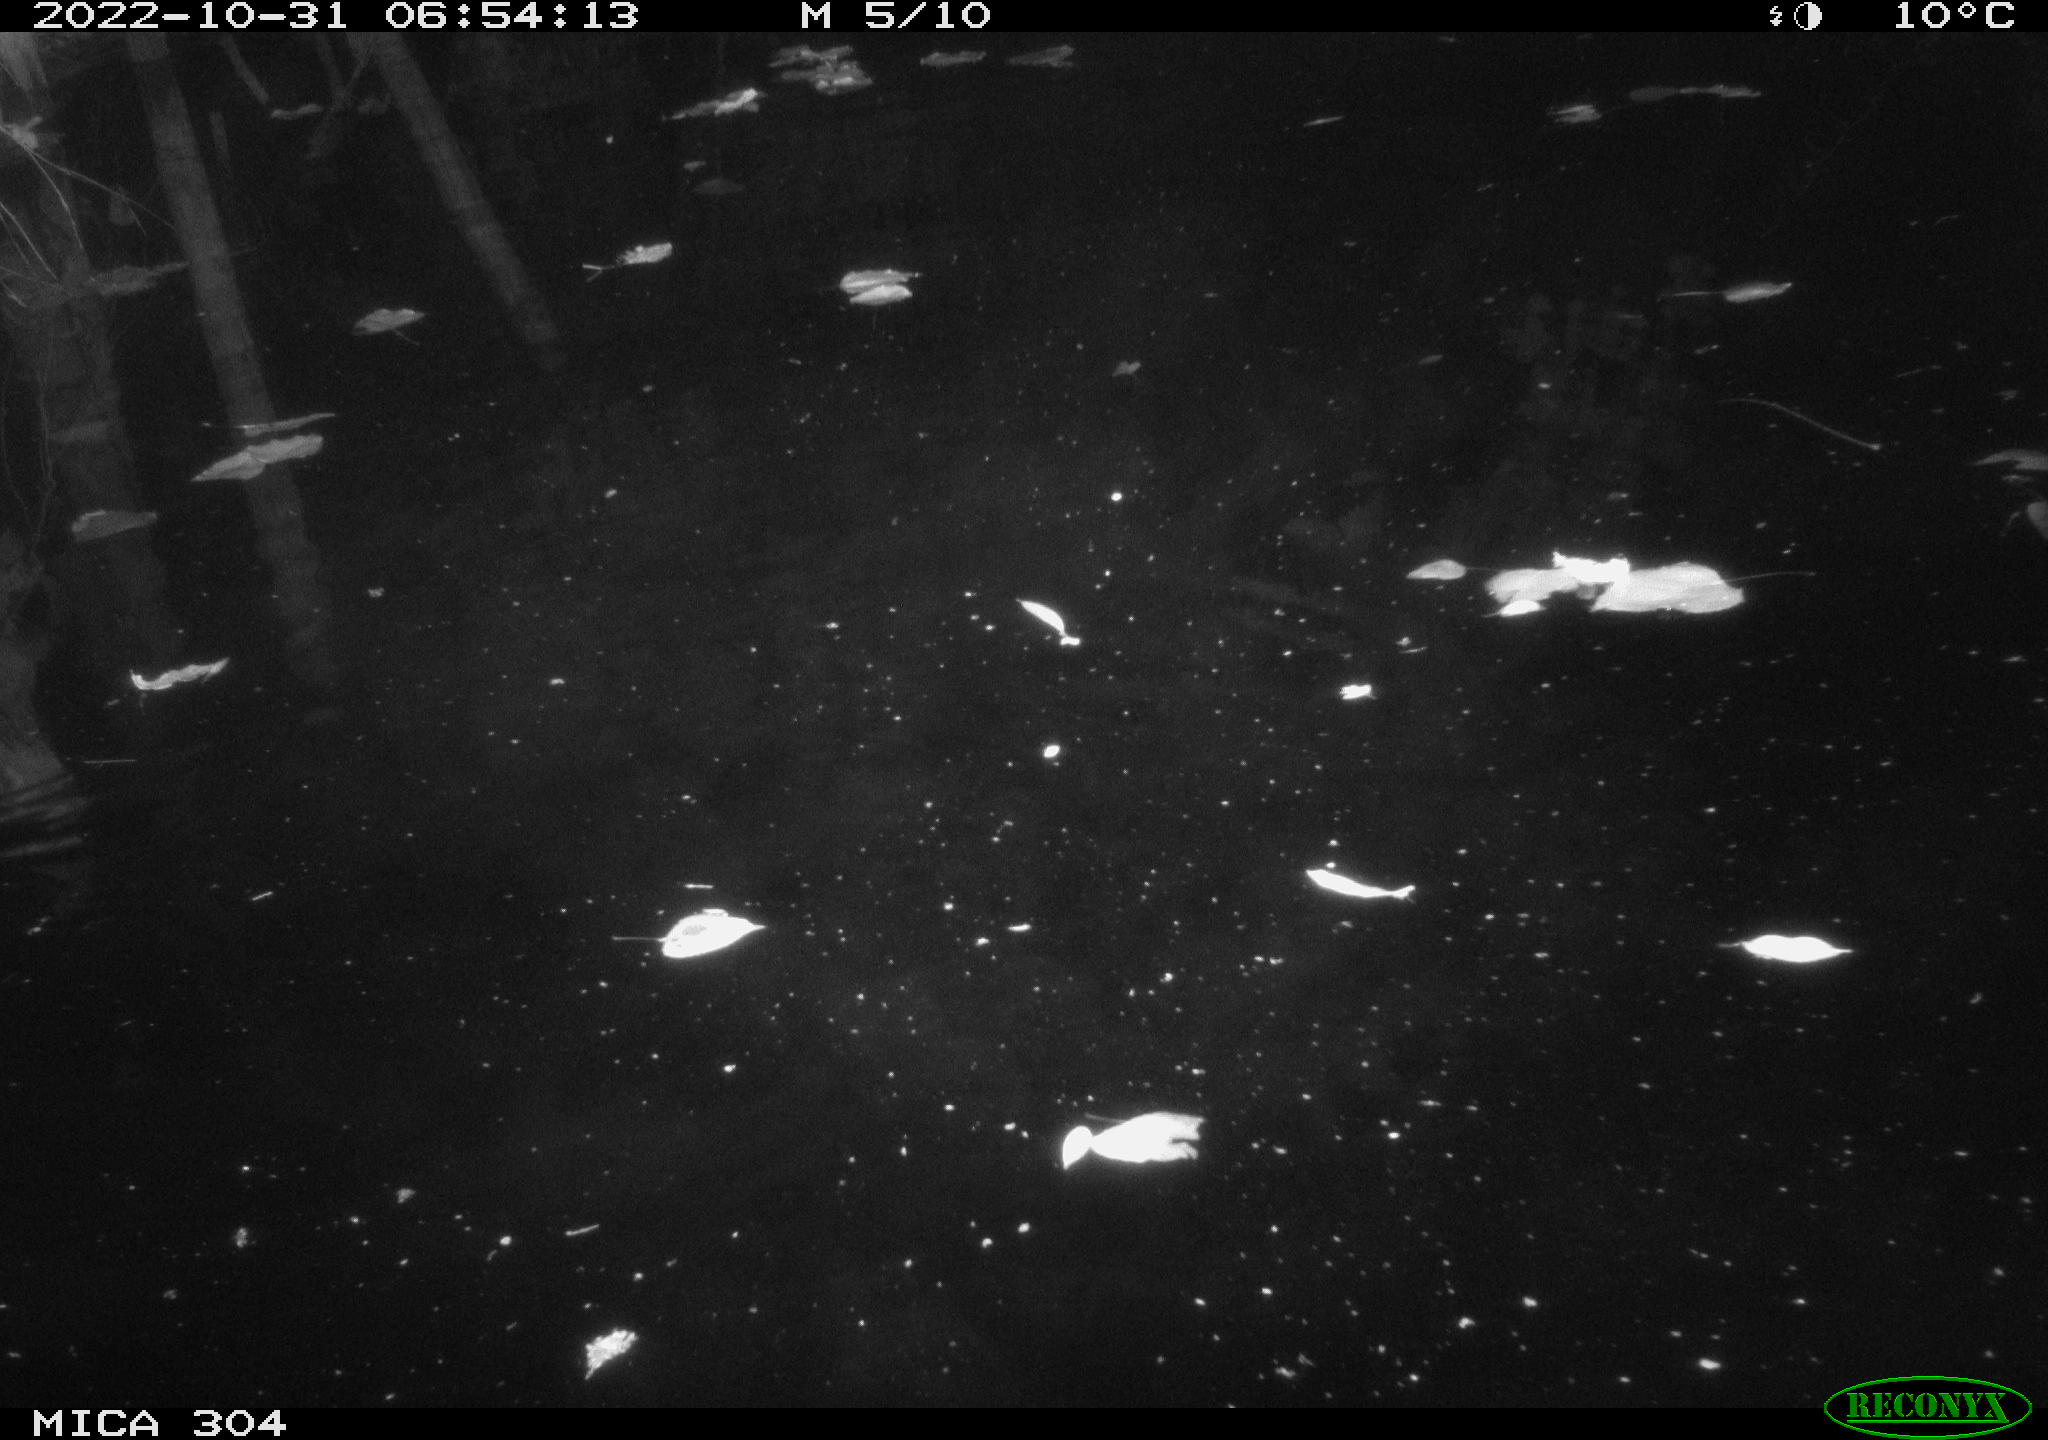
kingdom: Animalia
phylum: Chordata
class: Mammalia
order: Rodentia
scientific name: Rodentia
